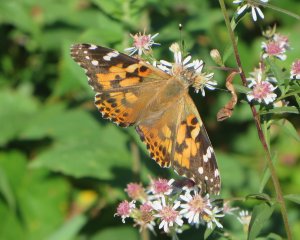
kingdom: Animalia
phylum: Arthropoda
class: Insecta
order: Lepidoptera
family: Nymphalidae
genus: Vanessa
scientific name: Vanessa cardui
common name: Painted Lady
